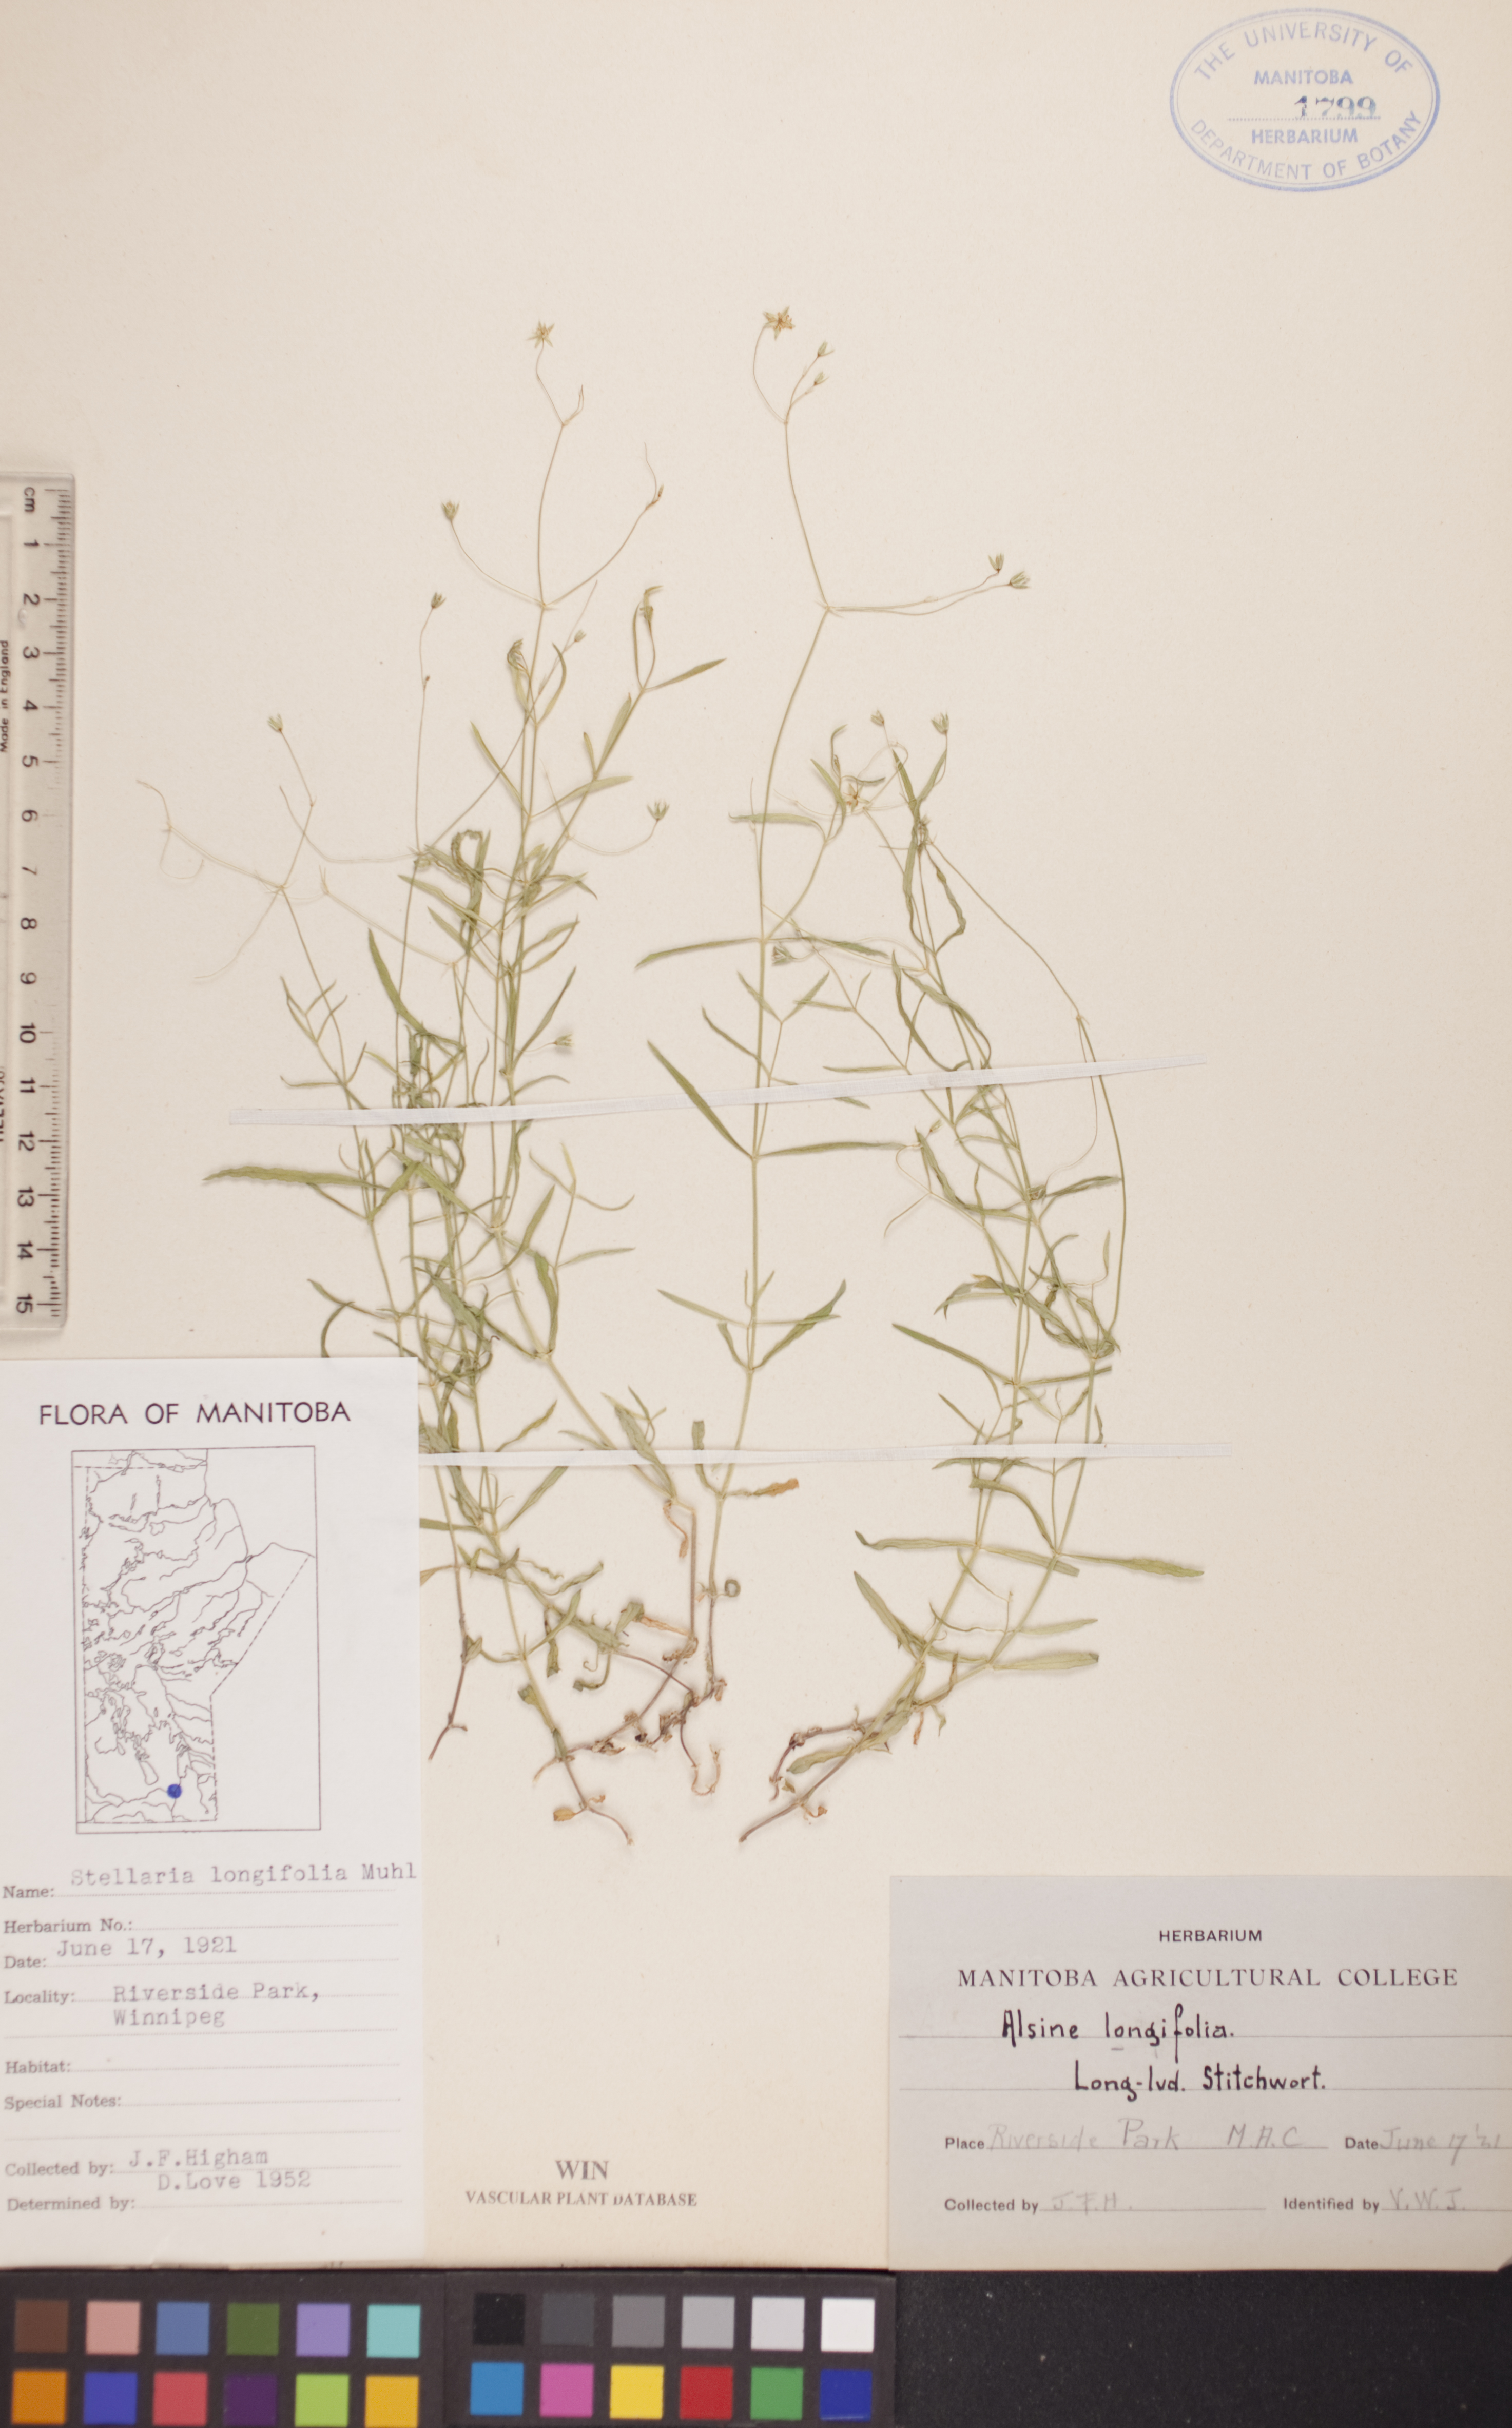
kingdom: Plantae
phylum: Tracheophyta
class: Magnoliopsida
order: Caryophyllales
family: Caryophyllaceae
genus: Stellaria
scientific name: Stellaria longifolia
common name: Long-leaved chickweed
